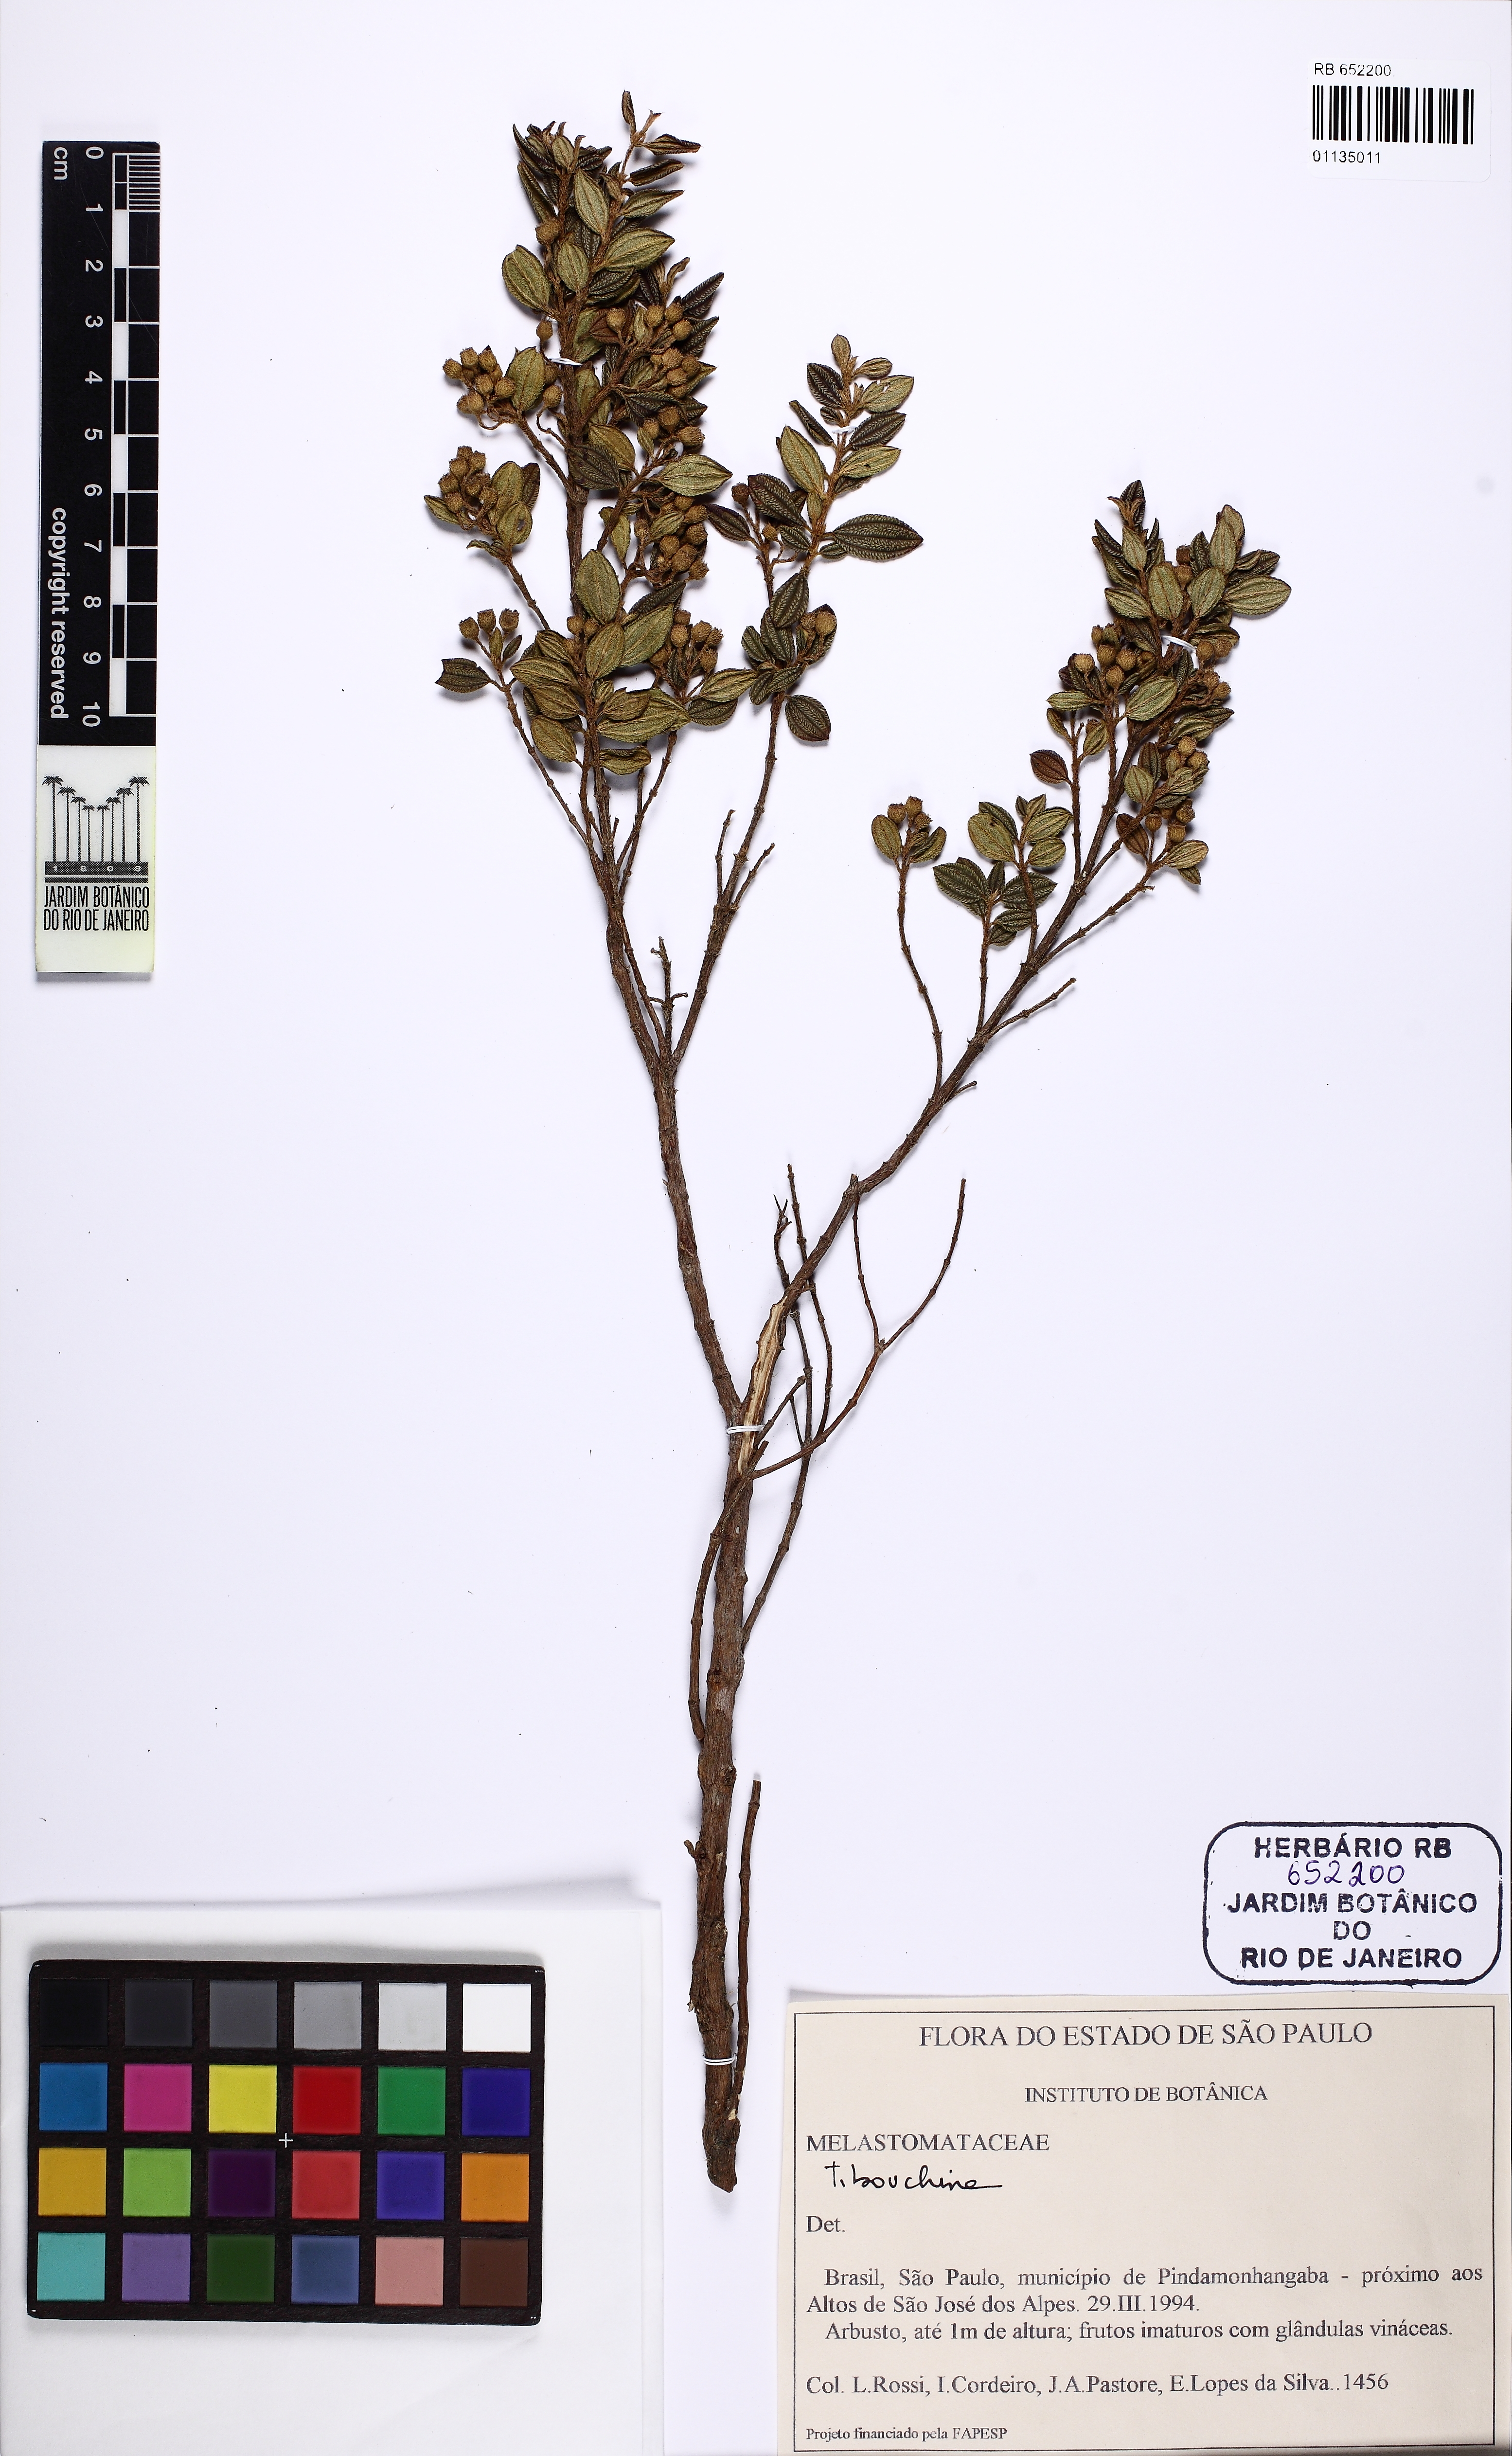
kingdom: Plantae
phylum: Tracheophyta
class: Magnoliopsida
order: Myrtales
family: Melastomataceae
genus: Tibouchina
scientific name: Tibouchina
